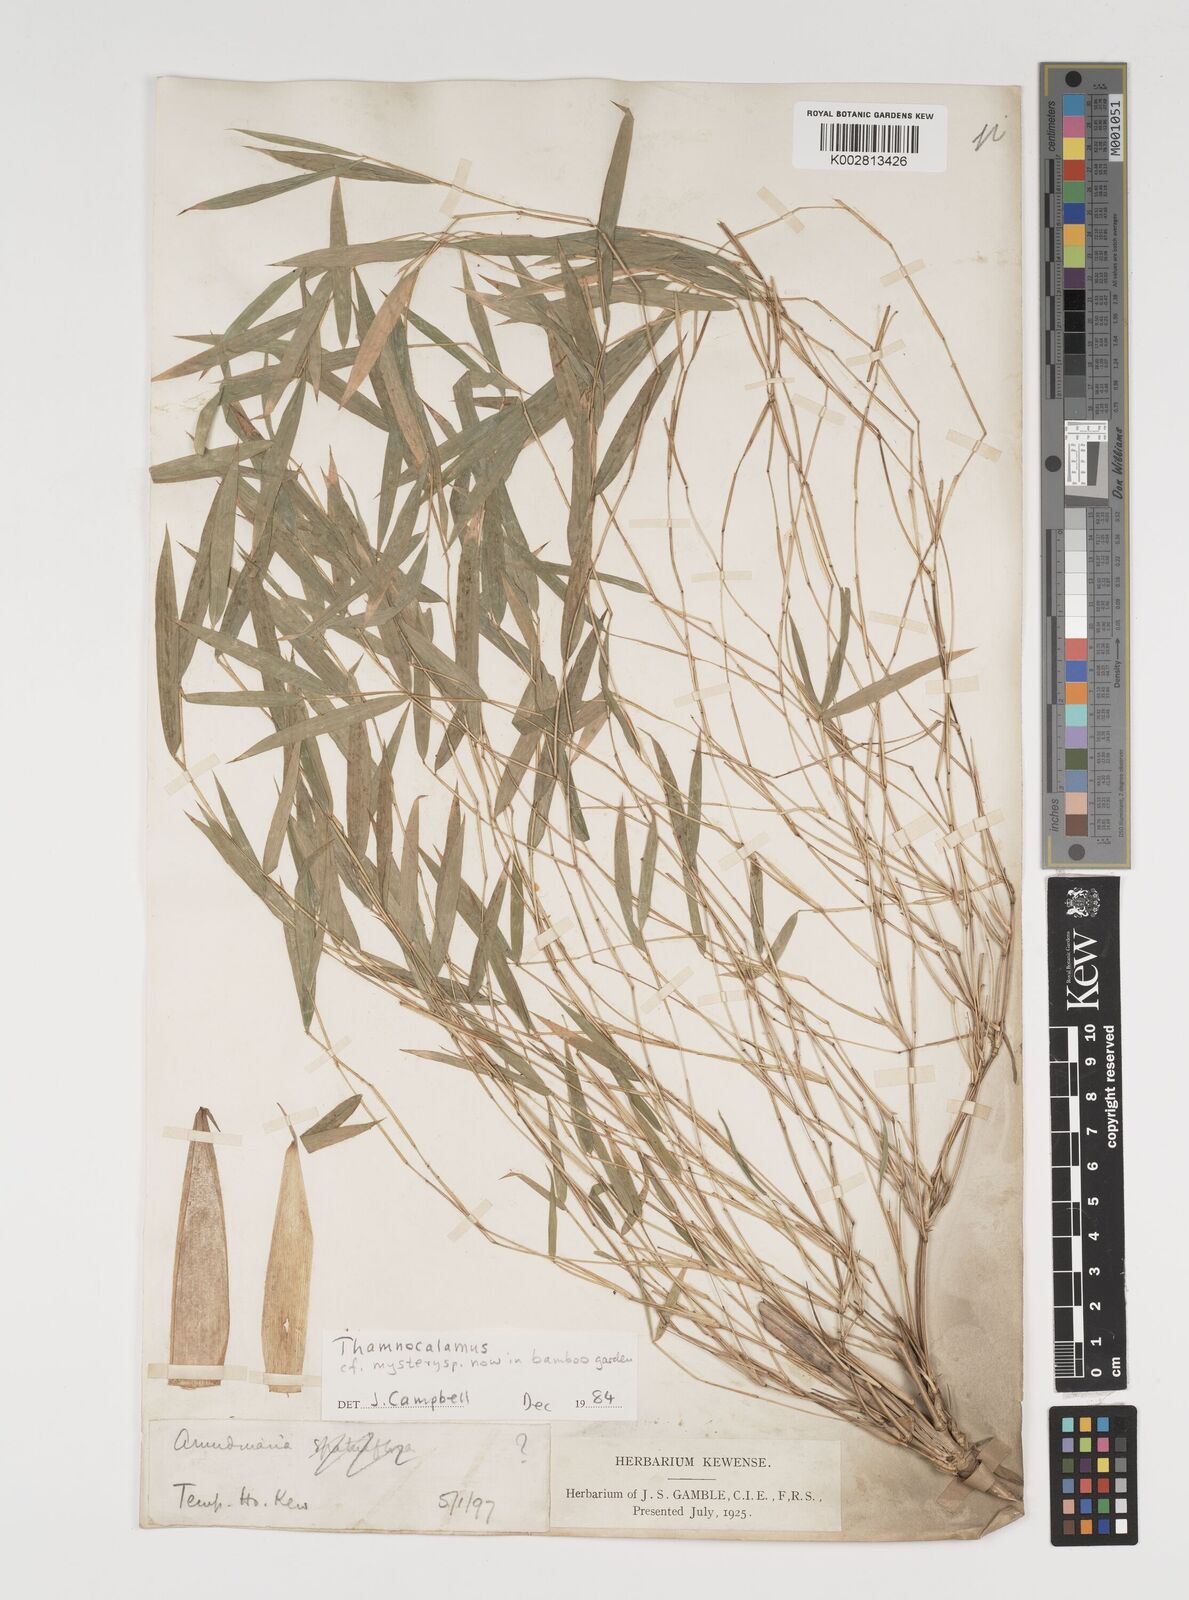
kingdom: Plantae
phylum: Tracheophyta
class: Liliopsida
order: Poales
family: Poaceae
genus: Thamnocalamus
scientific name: Thamnocalamus spathiflorus
